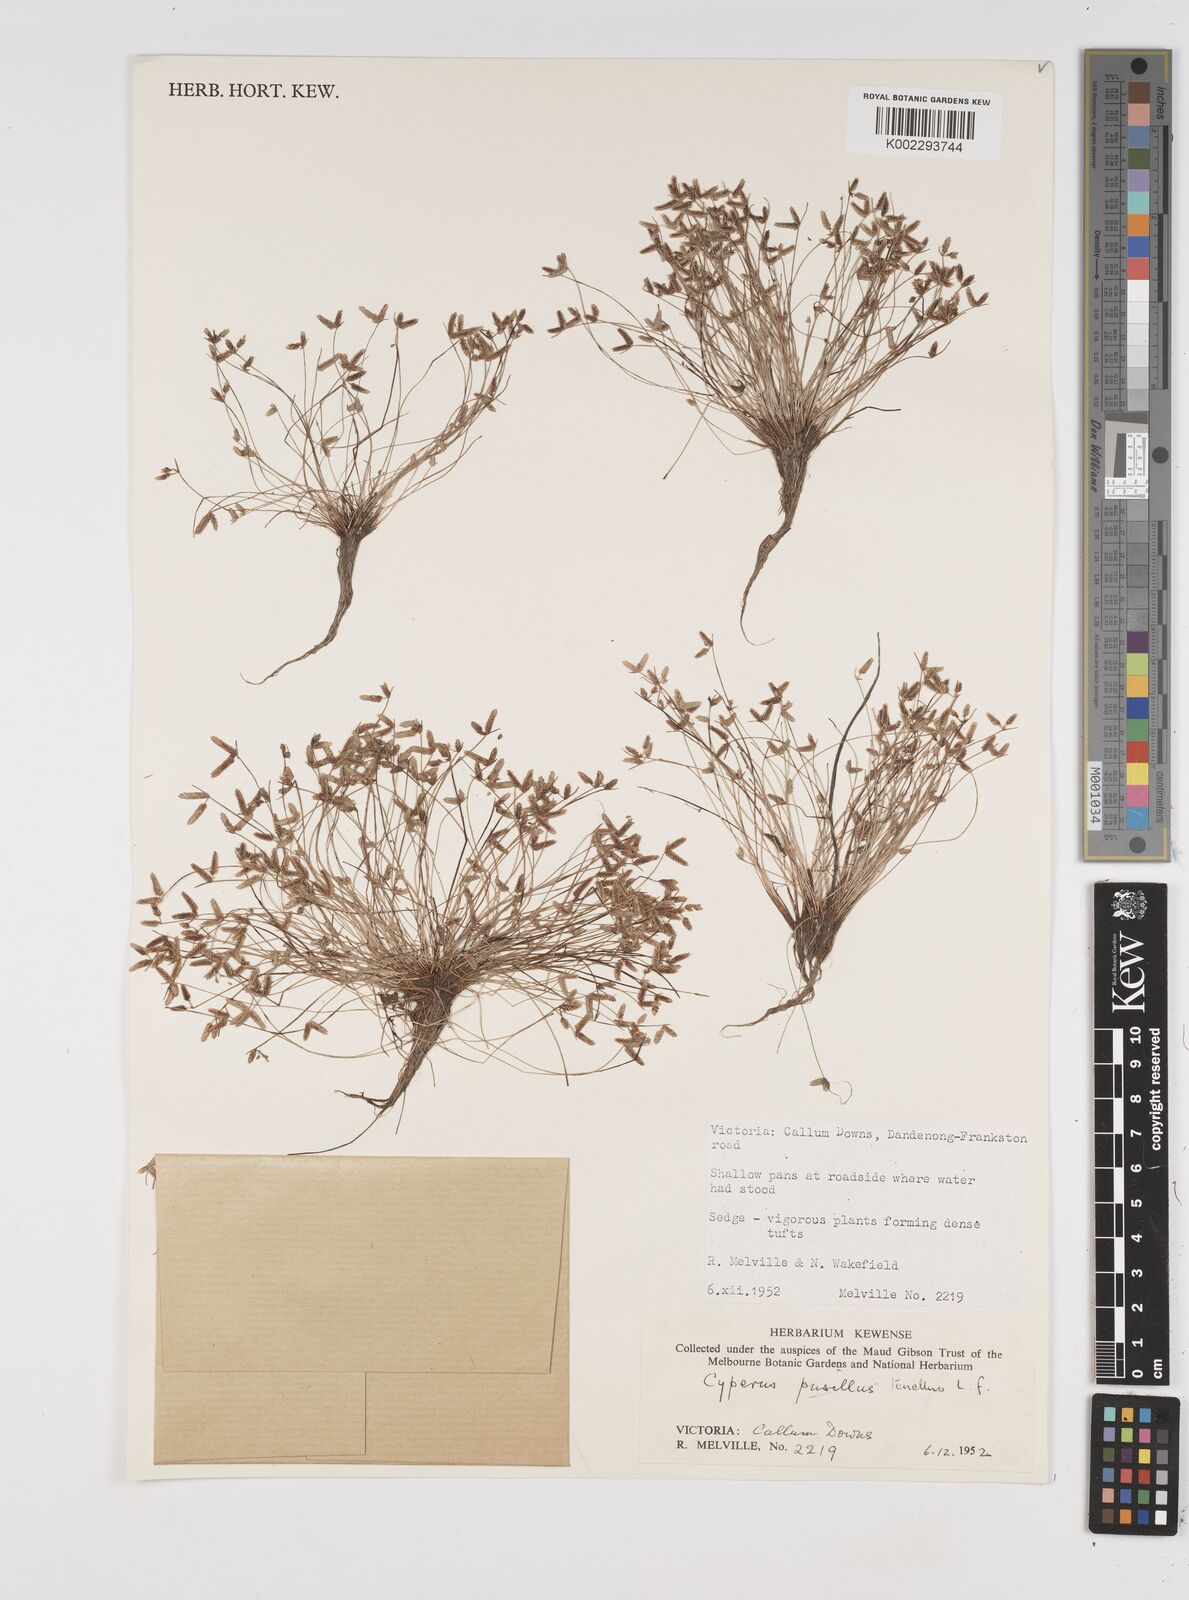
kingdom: Plantae
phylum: Tracheophyta
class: Liliopsida
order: Poales
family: Cyperaceae
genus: Isolepis
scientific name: Isolepis levynsiana
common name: Sedge
